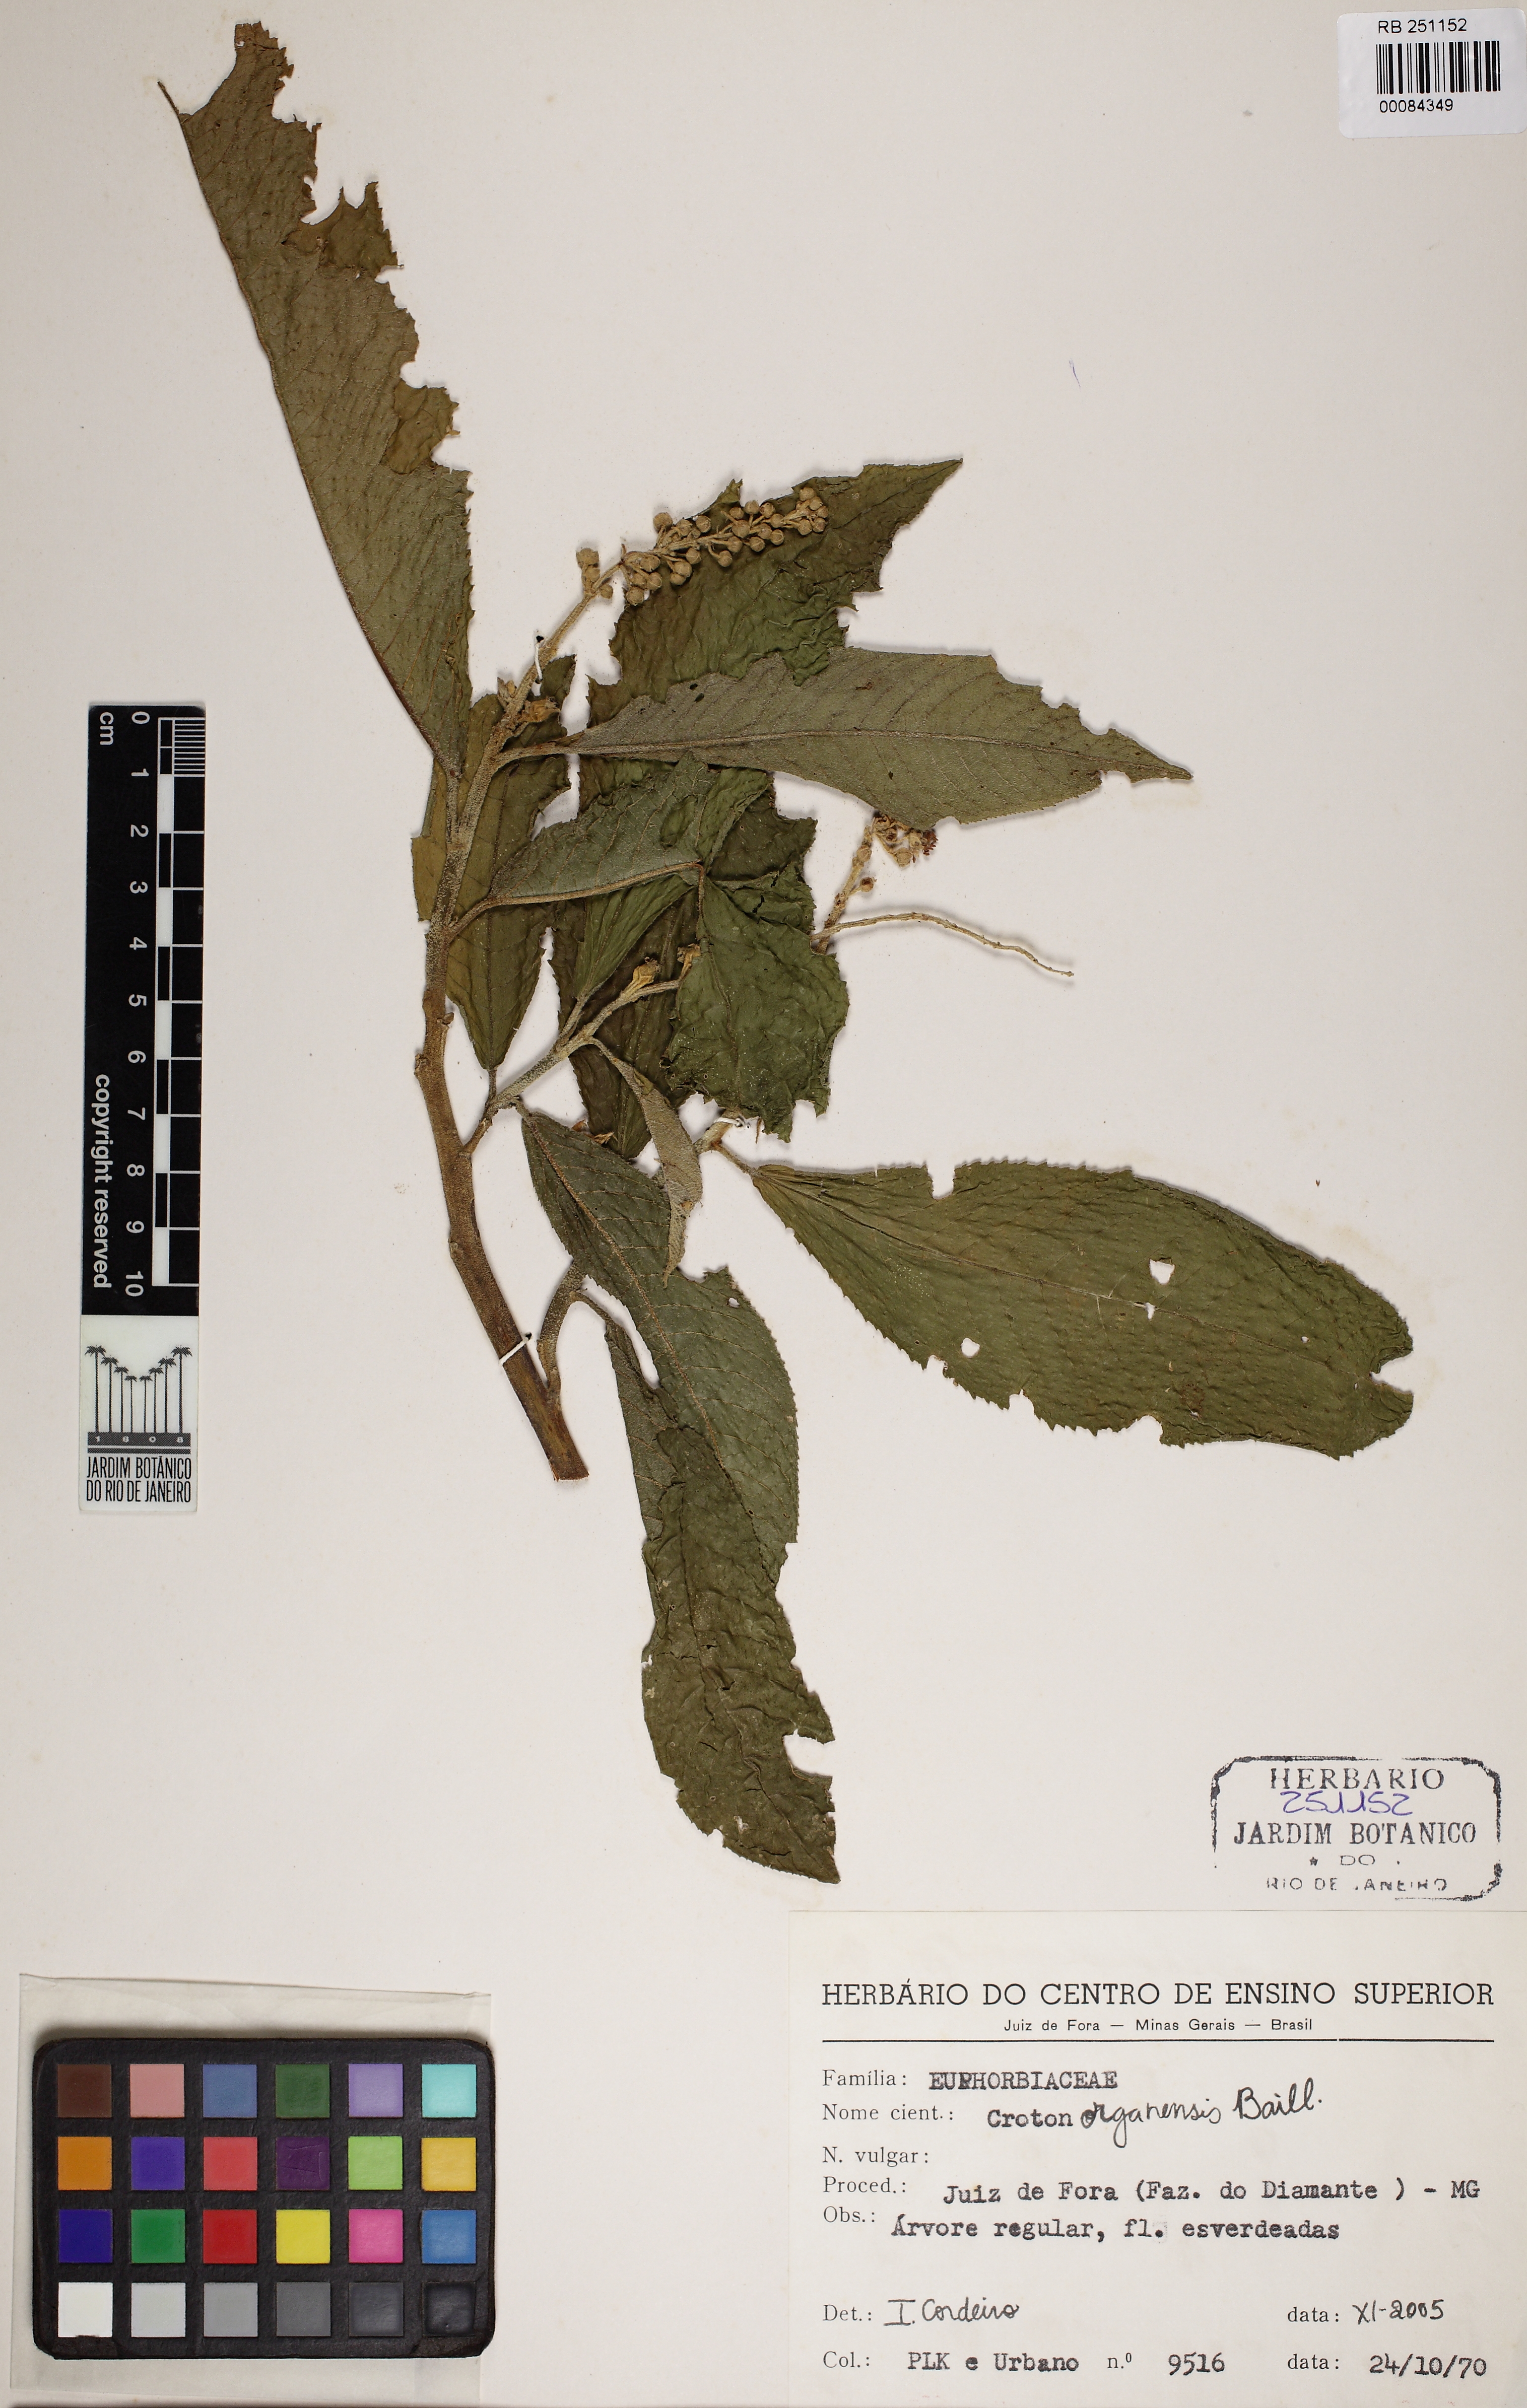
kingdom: Plantae
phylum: Tracheophyta
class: Magnoliopsida
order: Malpighiales
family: Euphorbiaceae
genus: Croton
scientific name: Croton organensis
